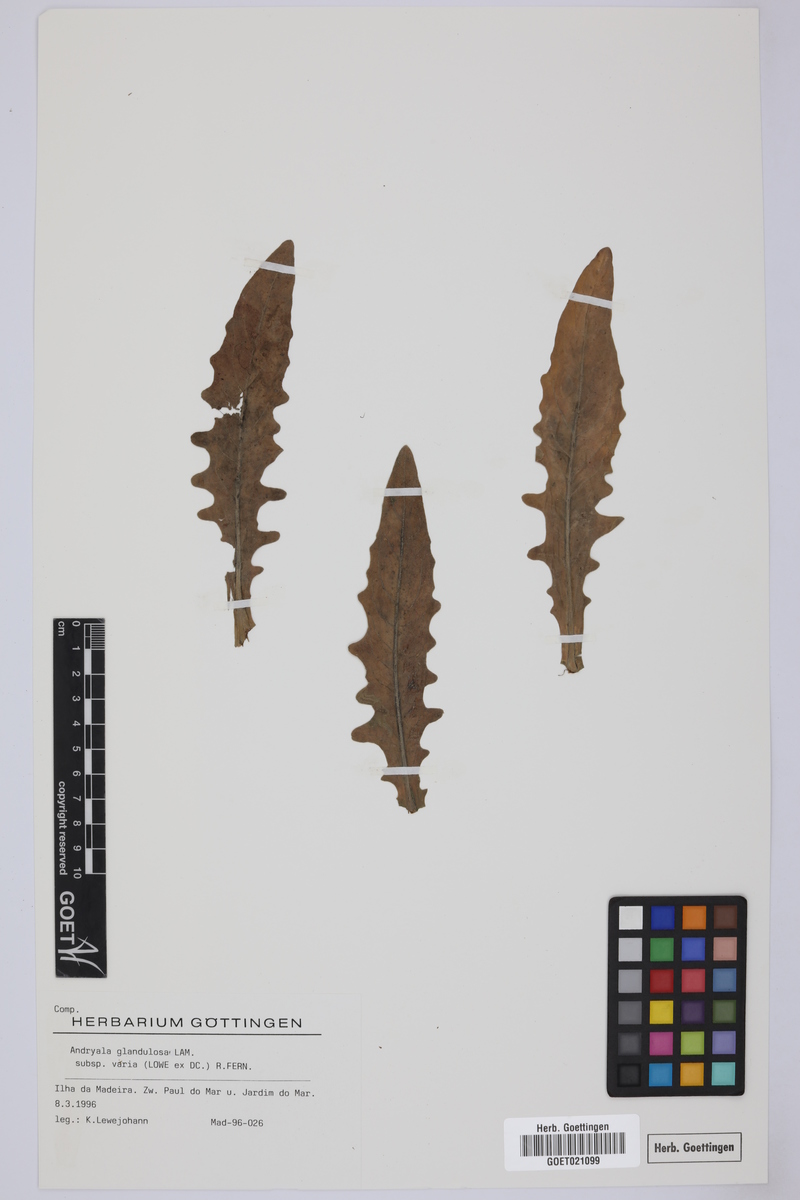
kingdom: Plantae
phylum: Tracheophyta
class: Magnoliopsida
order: Asterales
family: Asteraceae
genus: Andryala
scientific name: Andryala glandulosa
